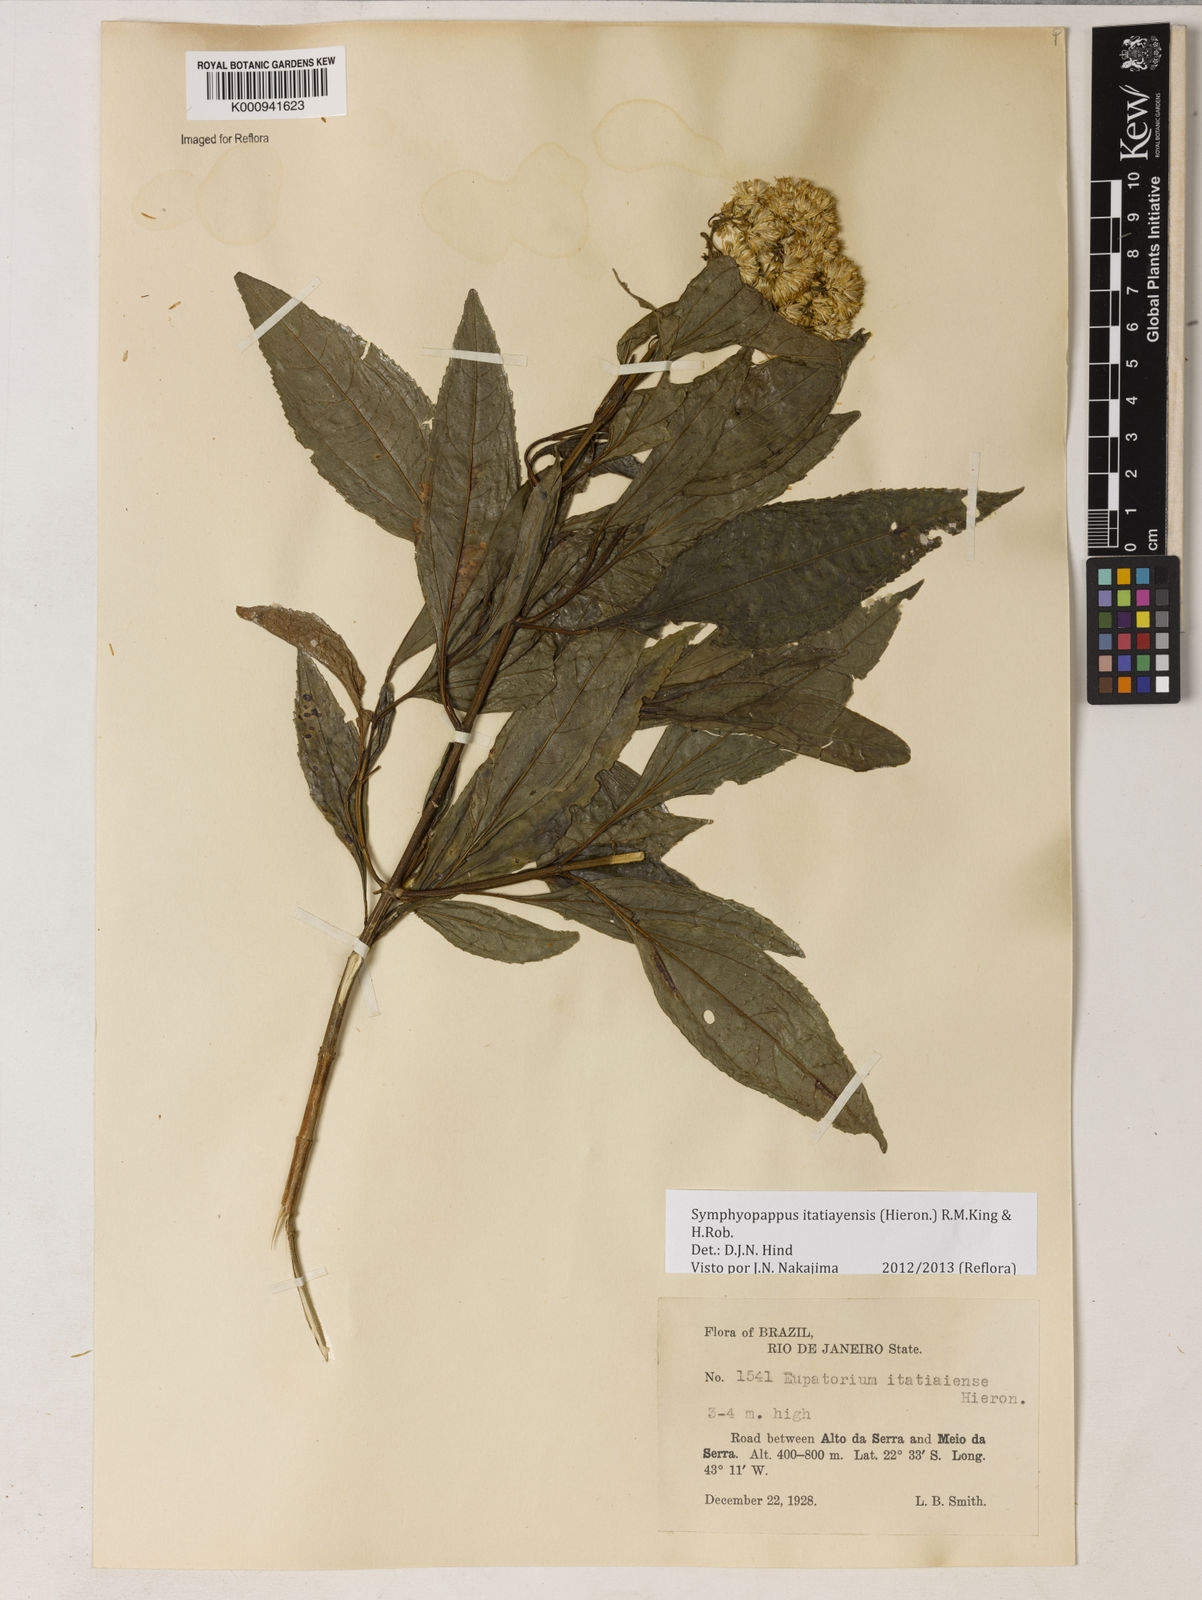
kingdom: Plantae
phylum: Tracheophyta
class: Magnoliopsida
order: Asterales
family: Asteraceae
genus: Symphyopappus
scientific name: Symphyopappus itatiayensis
